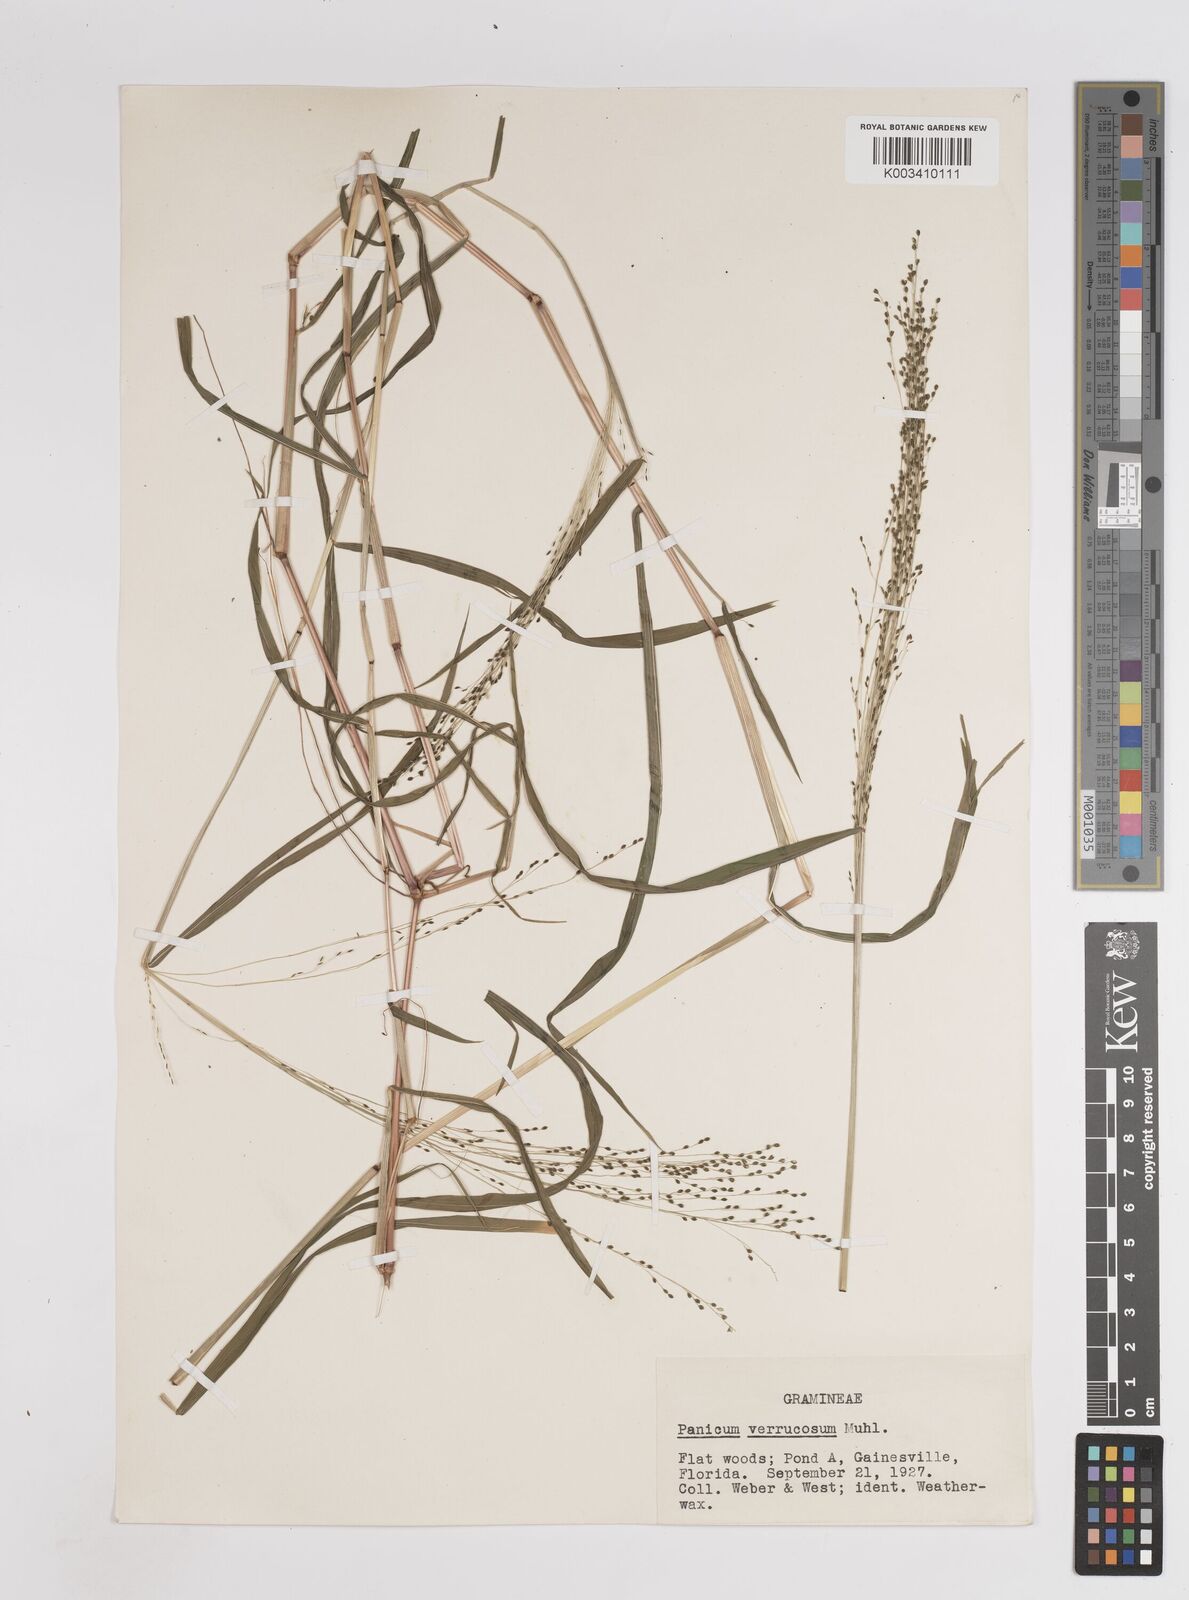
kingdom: Plantae
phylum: Tracheophyta
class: Liliopsida
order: Poales
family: Poaceae
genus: Kellochloa
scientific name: Kellochloa verrucosa
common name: Warty panic grass
